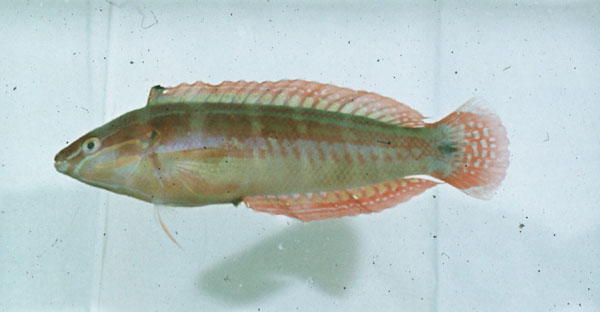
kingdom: Animalia
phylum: Chordata
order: Perciformes
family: Labridae
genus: Coris
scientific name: Coris caudimacula
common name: Spottail coris
